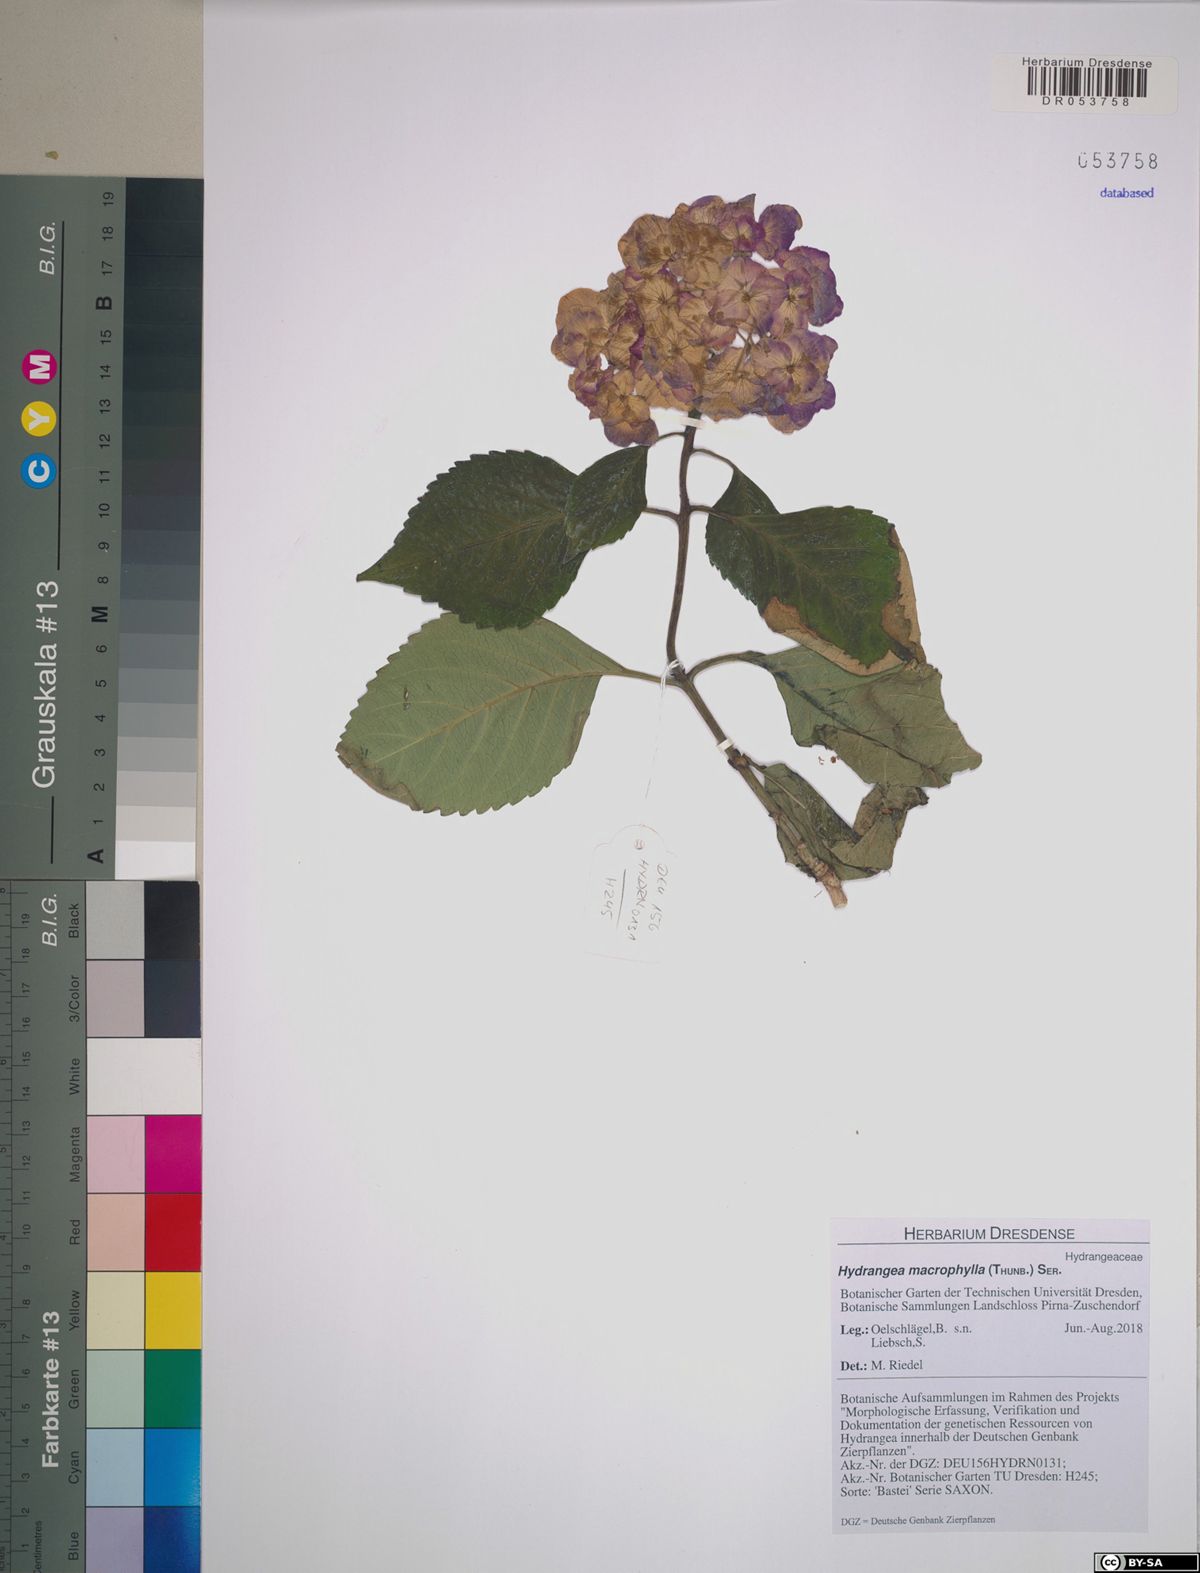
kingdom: Plantae
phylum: Tracheophyta
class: Magnoliopsida
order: Cornales
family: Hydrangeaceae
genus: Hydrangea
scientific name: Hydrangea macrophylla
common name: Hydrangea
